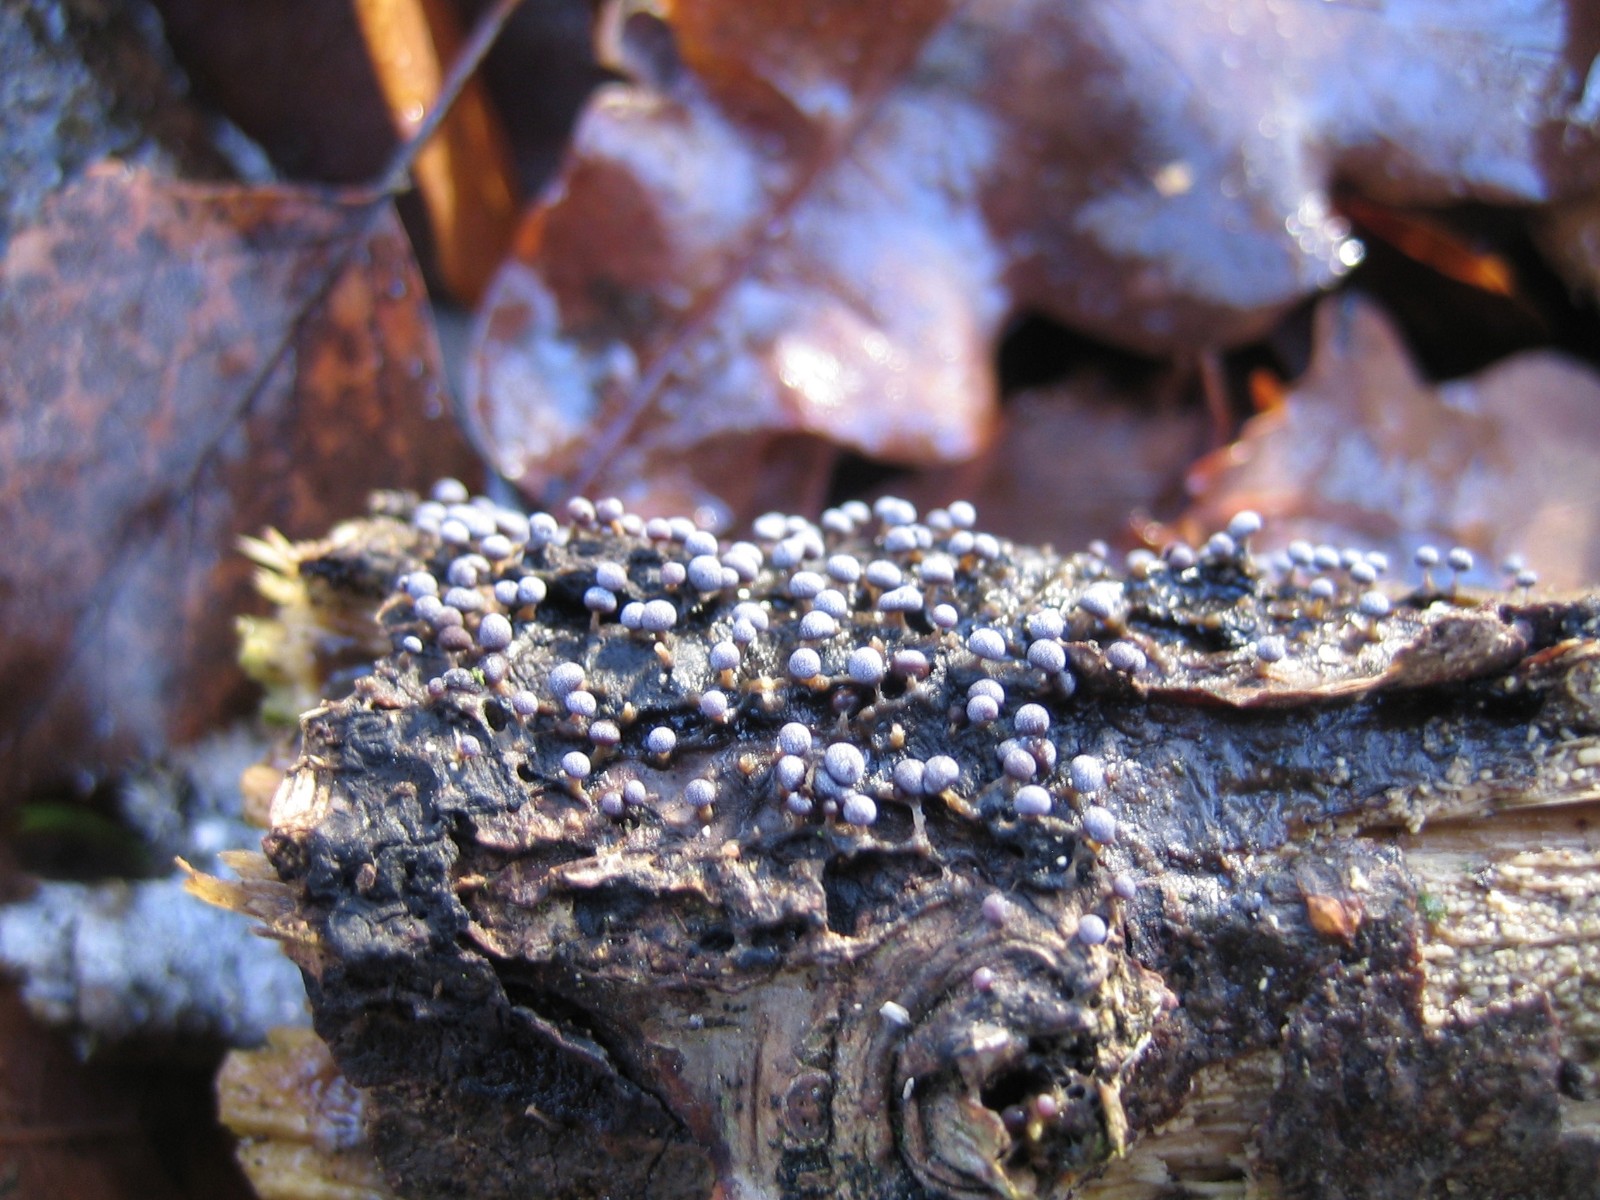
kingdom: Protozoa
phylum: Mycetozoa
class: Myxomycetes
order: Physarales
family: Physaraceae
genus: Physarum
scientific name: Physarum
